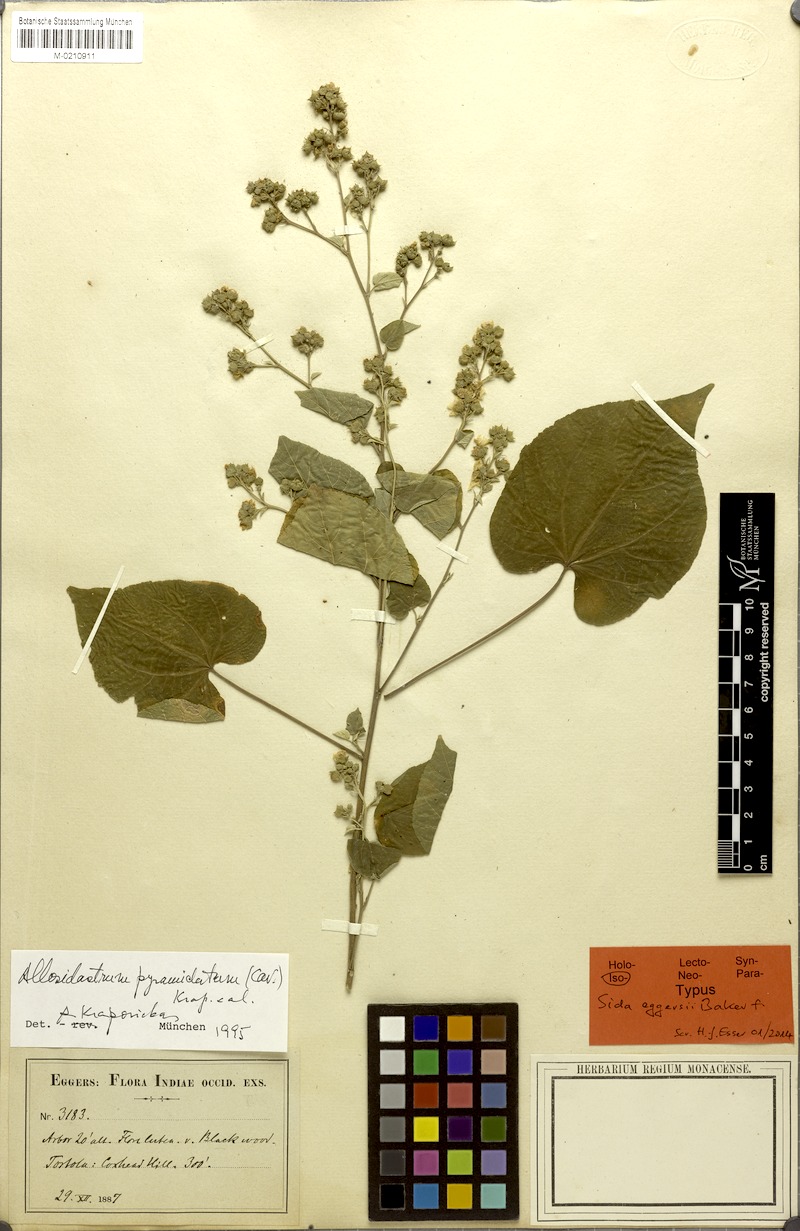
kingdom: Plantae
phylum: Tracheophyta
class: Magnoliopsida
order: Malvales
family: Malvaceae
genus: Bastardiopsis
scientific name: Bastardiopsis eggersii
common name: Jost van dyke's indian mallow
